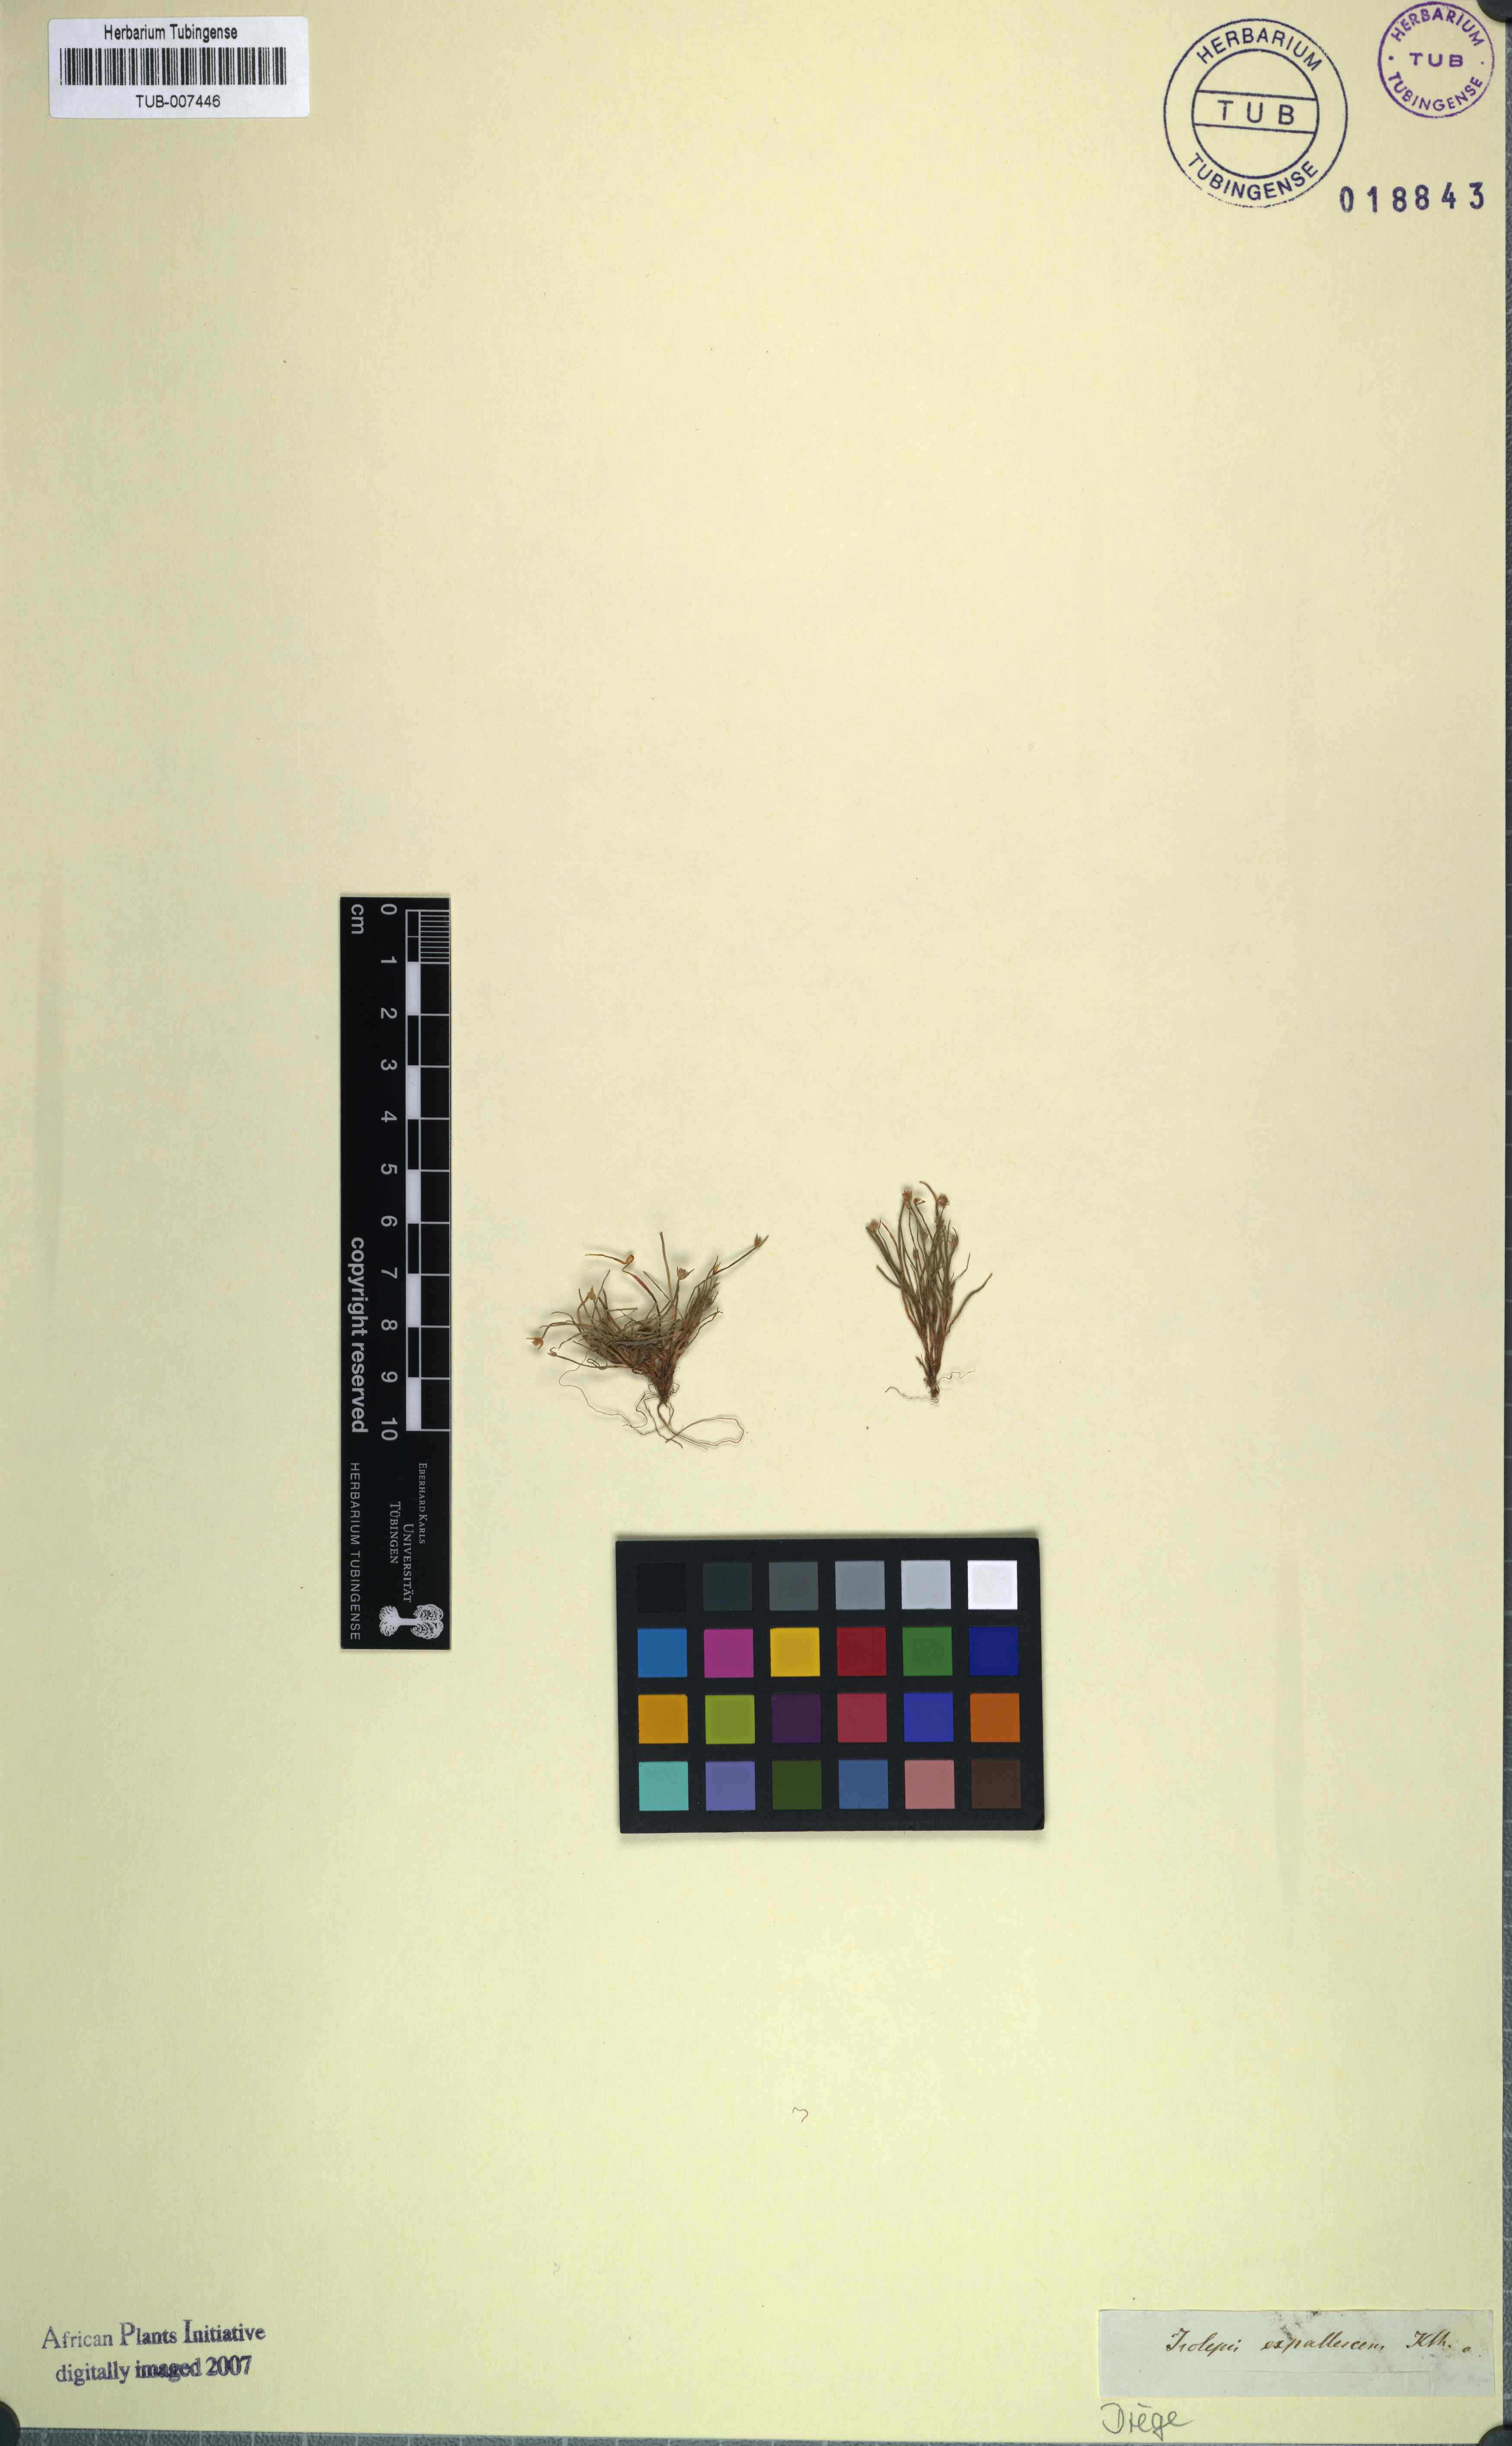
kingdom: Plantae
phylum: Tracheophyta
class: Liliopsida
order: Poales
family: Cyperaceae
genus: Isolepis
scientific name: Isolepis expallescens
